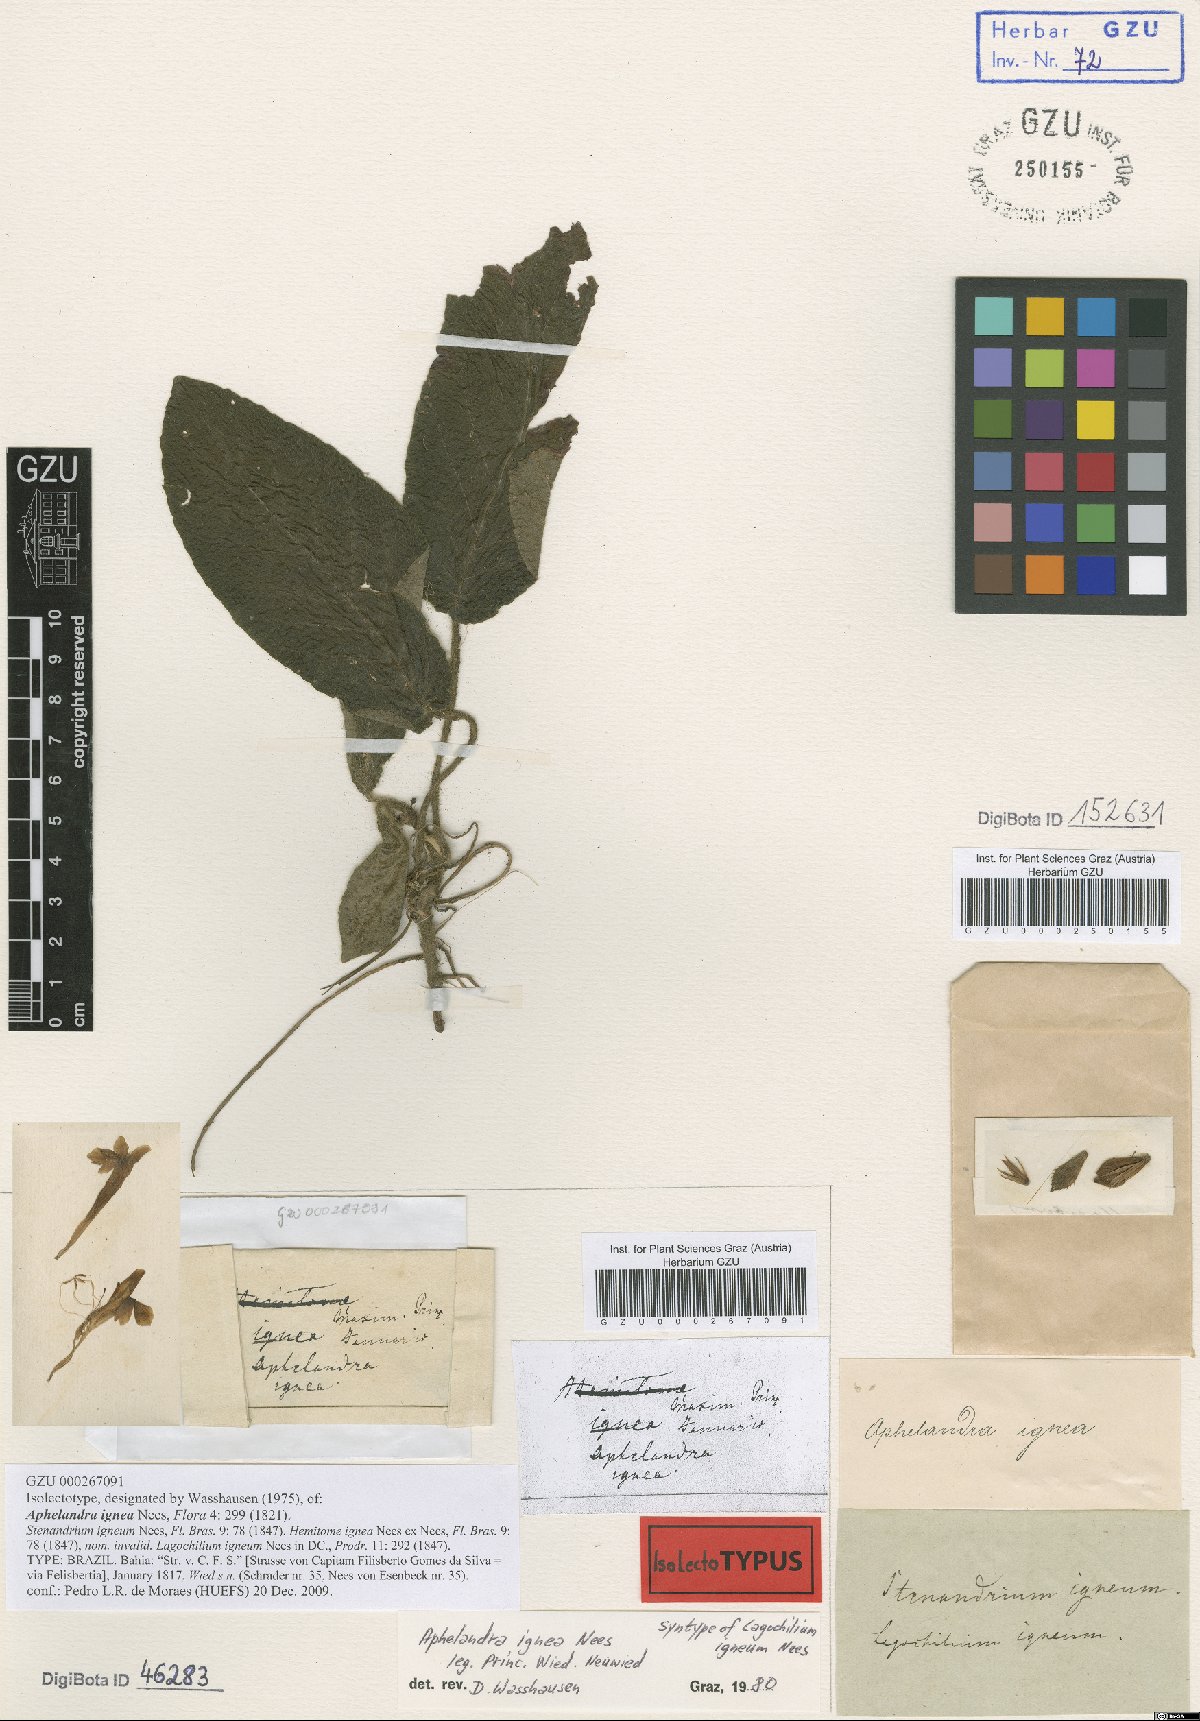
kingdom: Plantae
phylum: Tracheophyta
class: Magnoliopsida
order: Lamiales
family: Acanthaceae
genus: Aphelandra
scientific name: Aphelandra pumila
